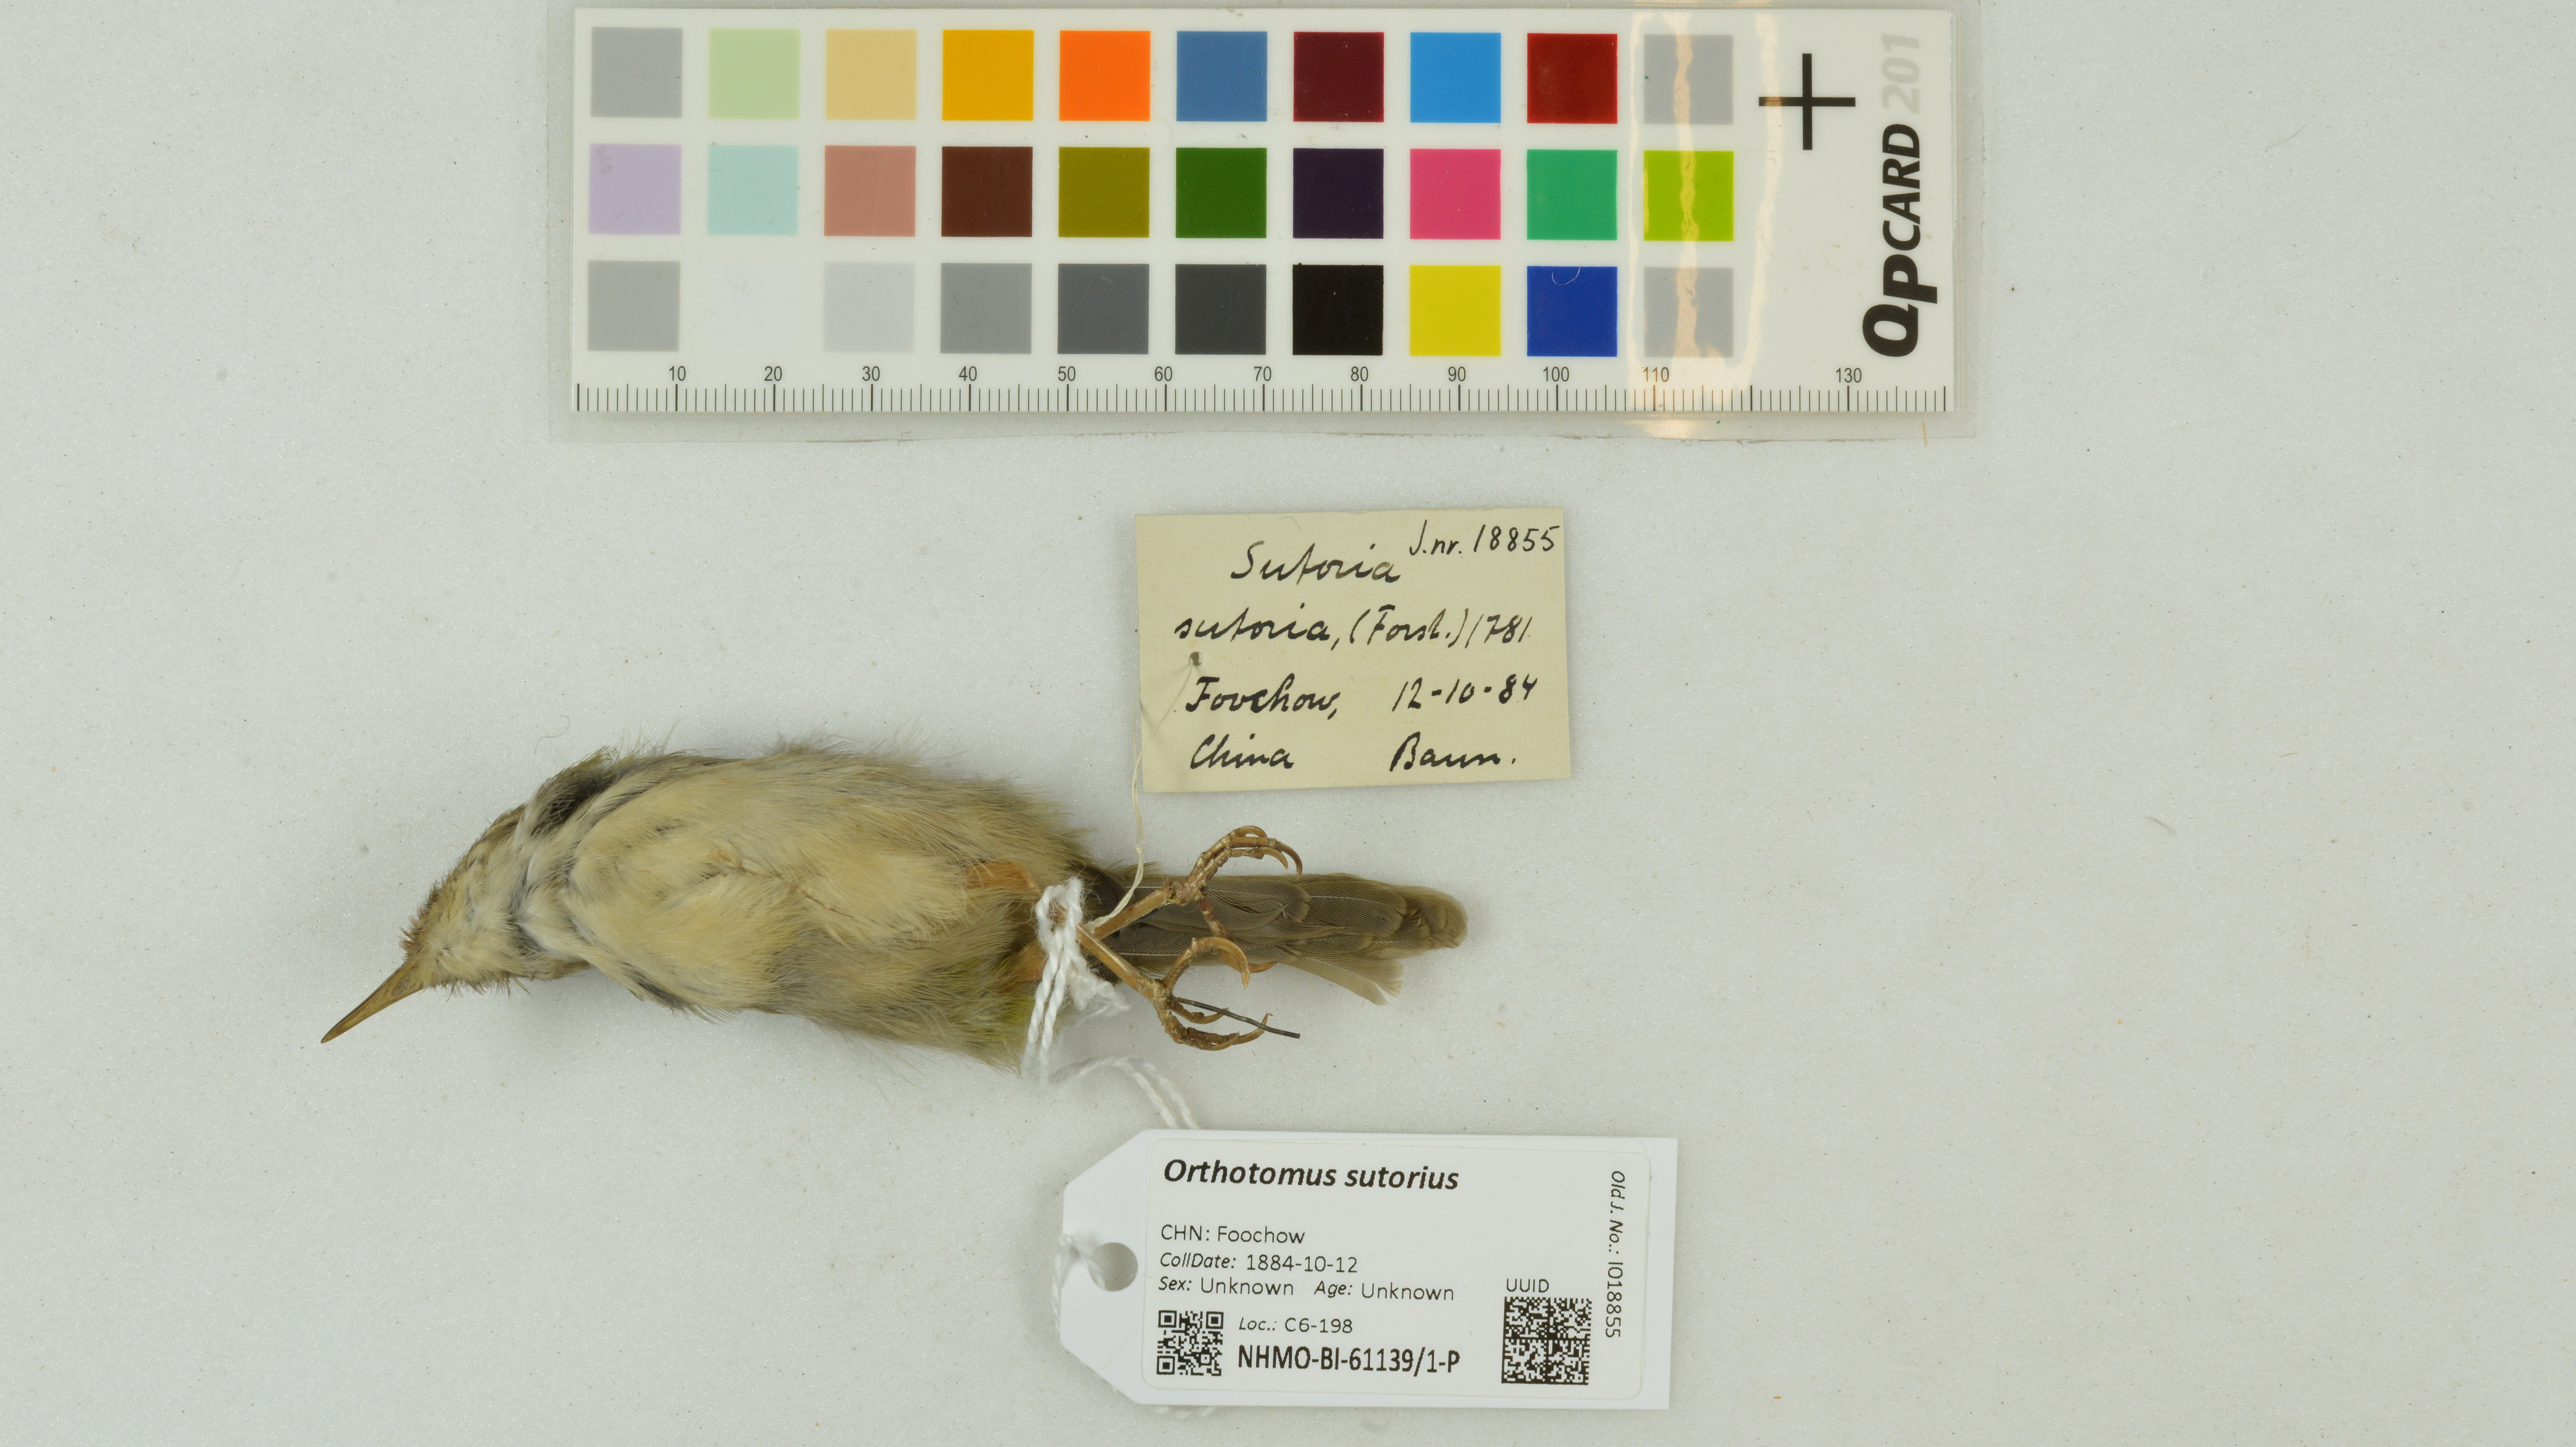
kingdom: Animalia
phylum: Chordata
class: Aves
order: Passeriformes
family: Cisticolidae
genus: Orthotomus
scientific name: Orthotomus sutorius
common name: Common tailorbird
